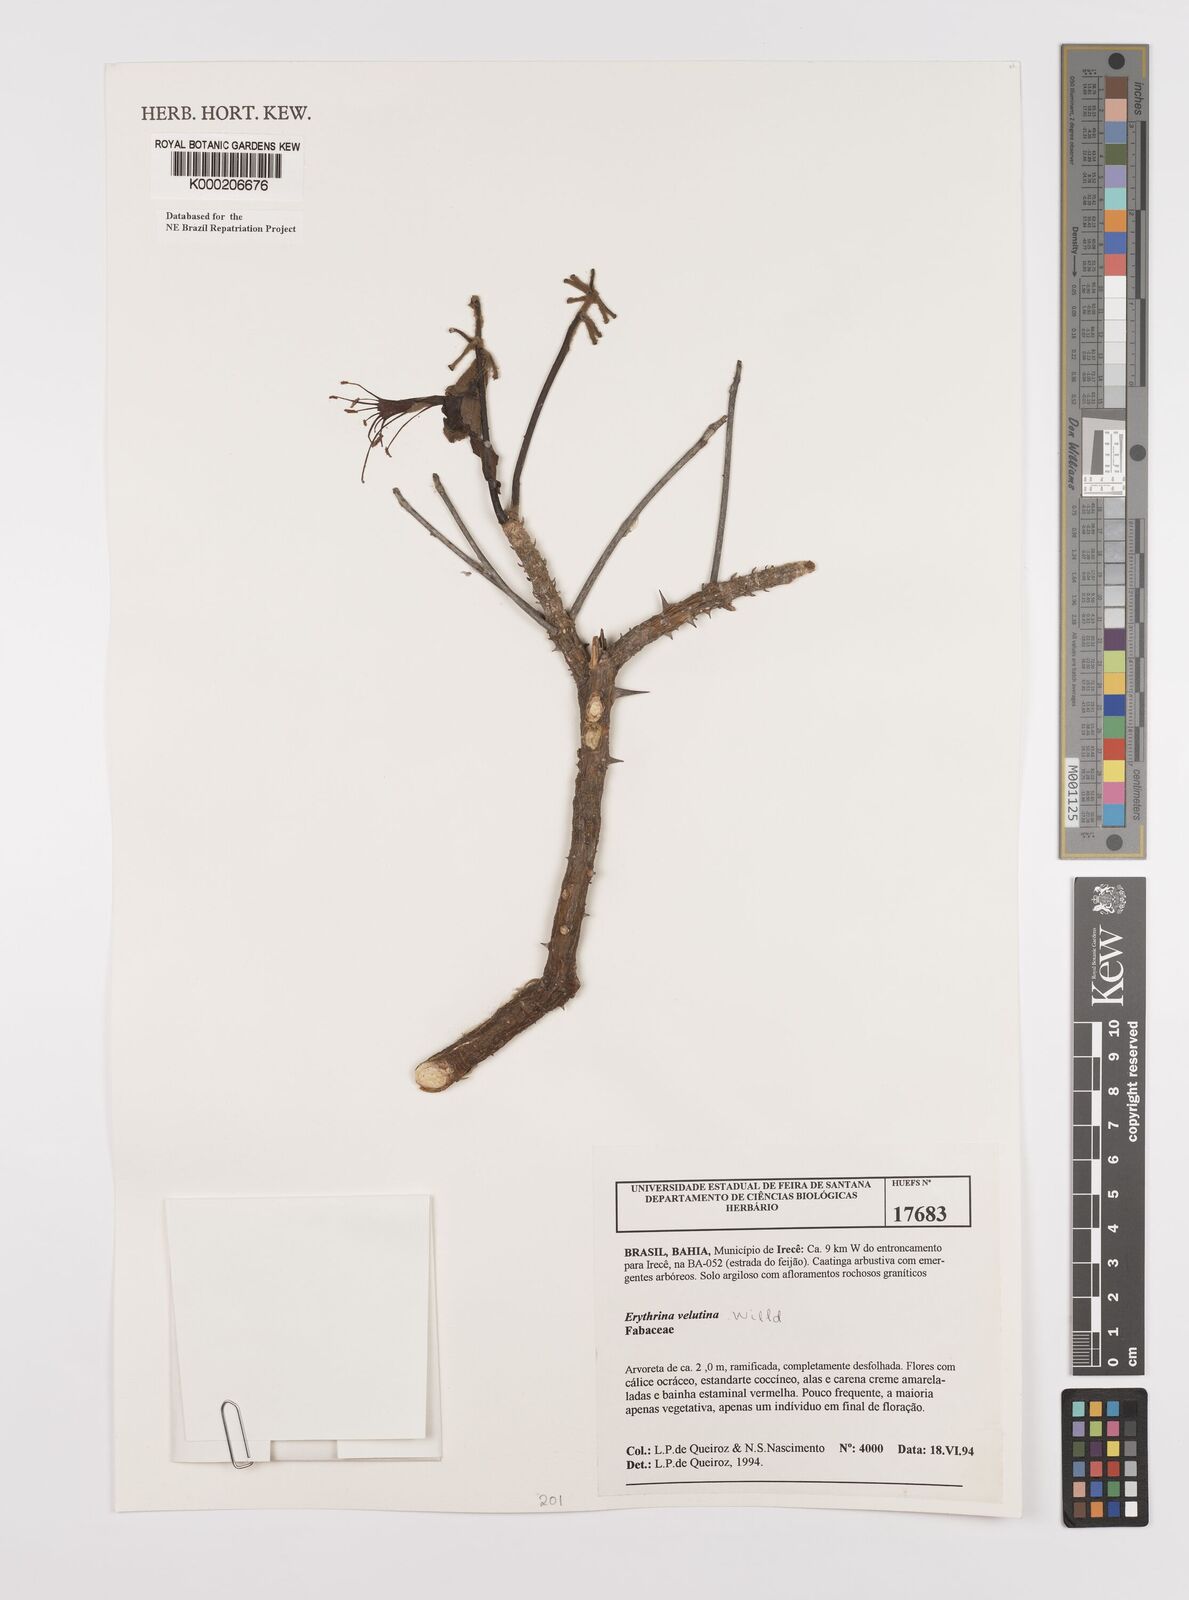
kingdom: Plantae
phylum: Tracheophyta
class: Magnoliopsida
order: Fabales
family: Fabaceae
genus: Erythrina
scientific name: Erythrina velutina
